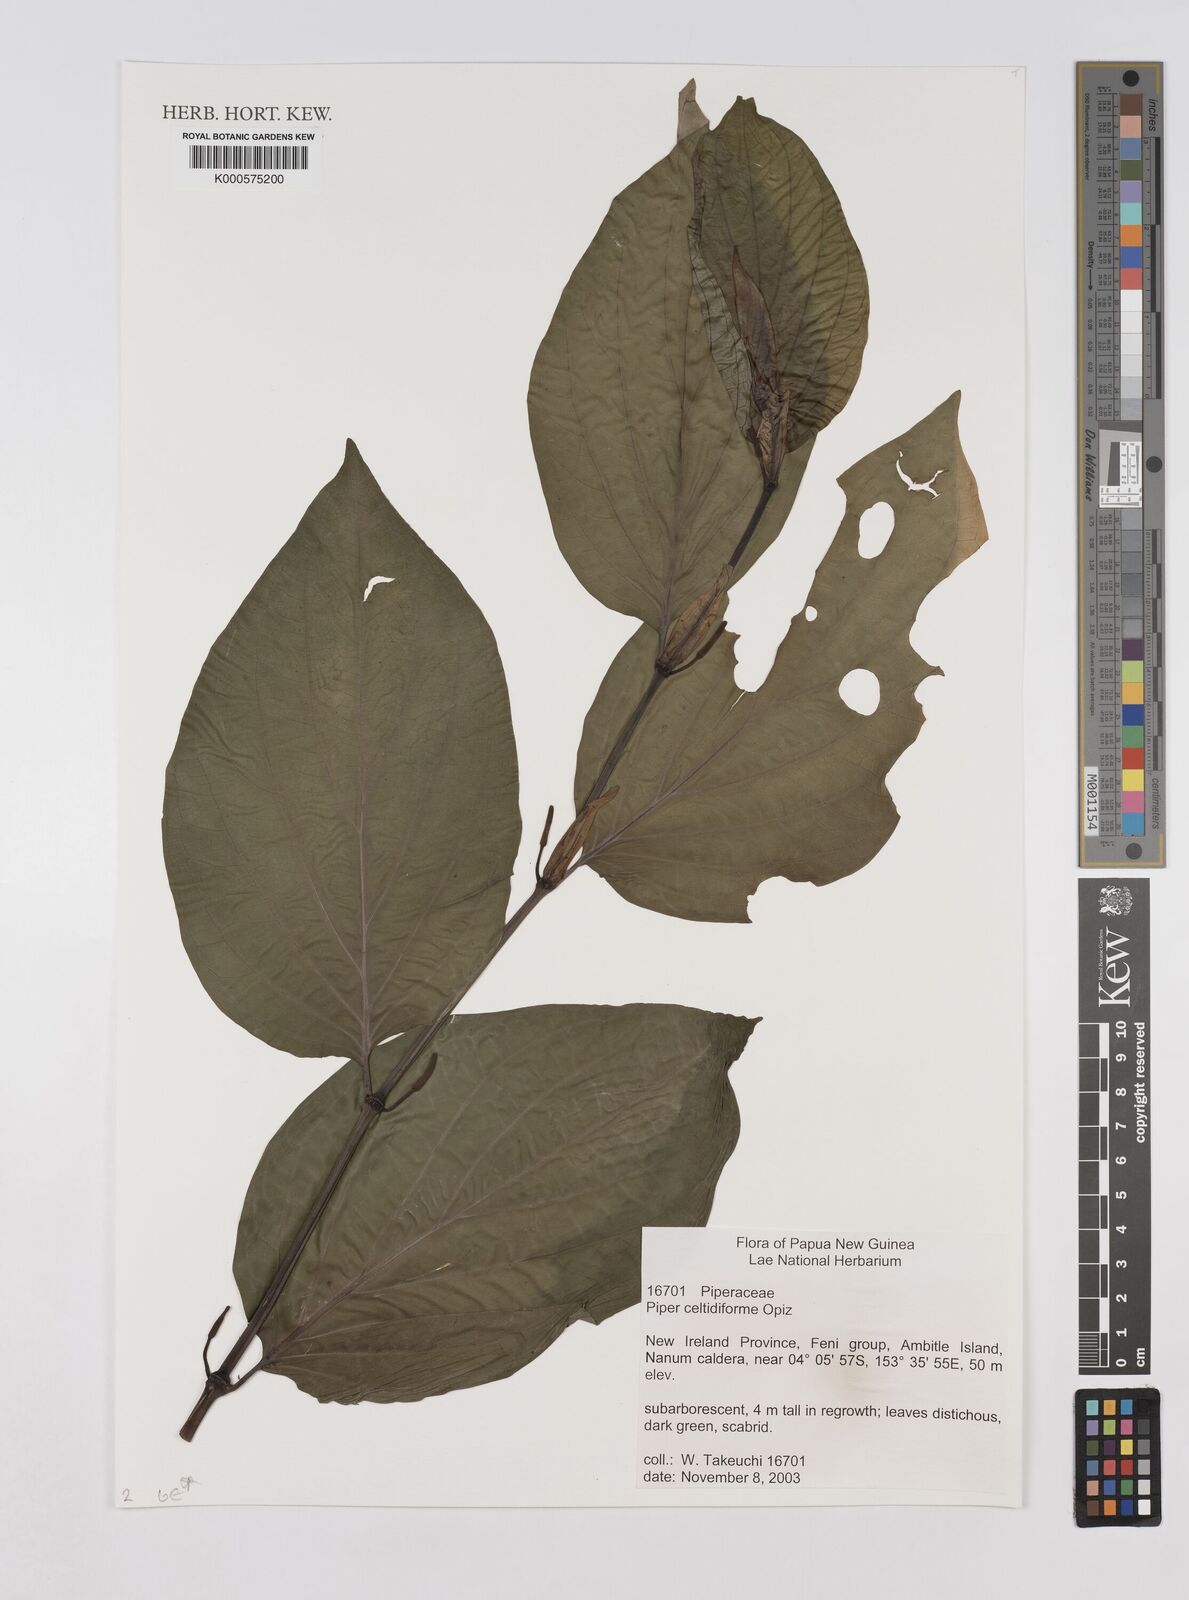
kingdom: Plantae
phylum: Tracheophyta
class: Magnoliopsida
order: Piperales
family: Piperaceae
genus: Piper
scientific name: Piper celtidiforme
